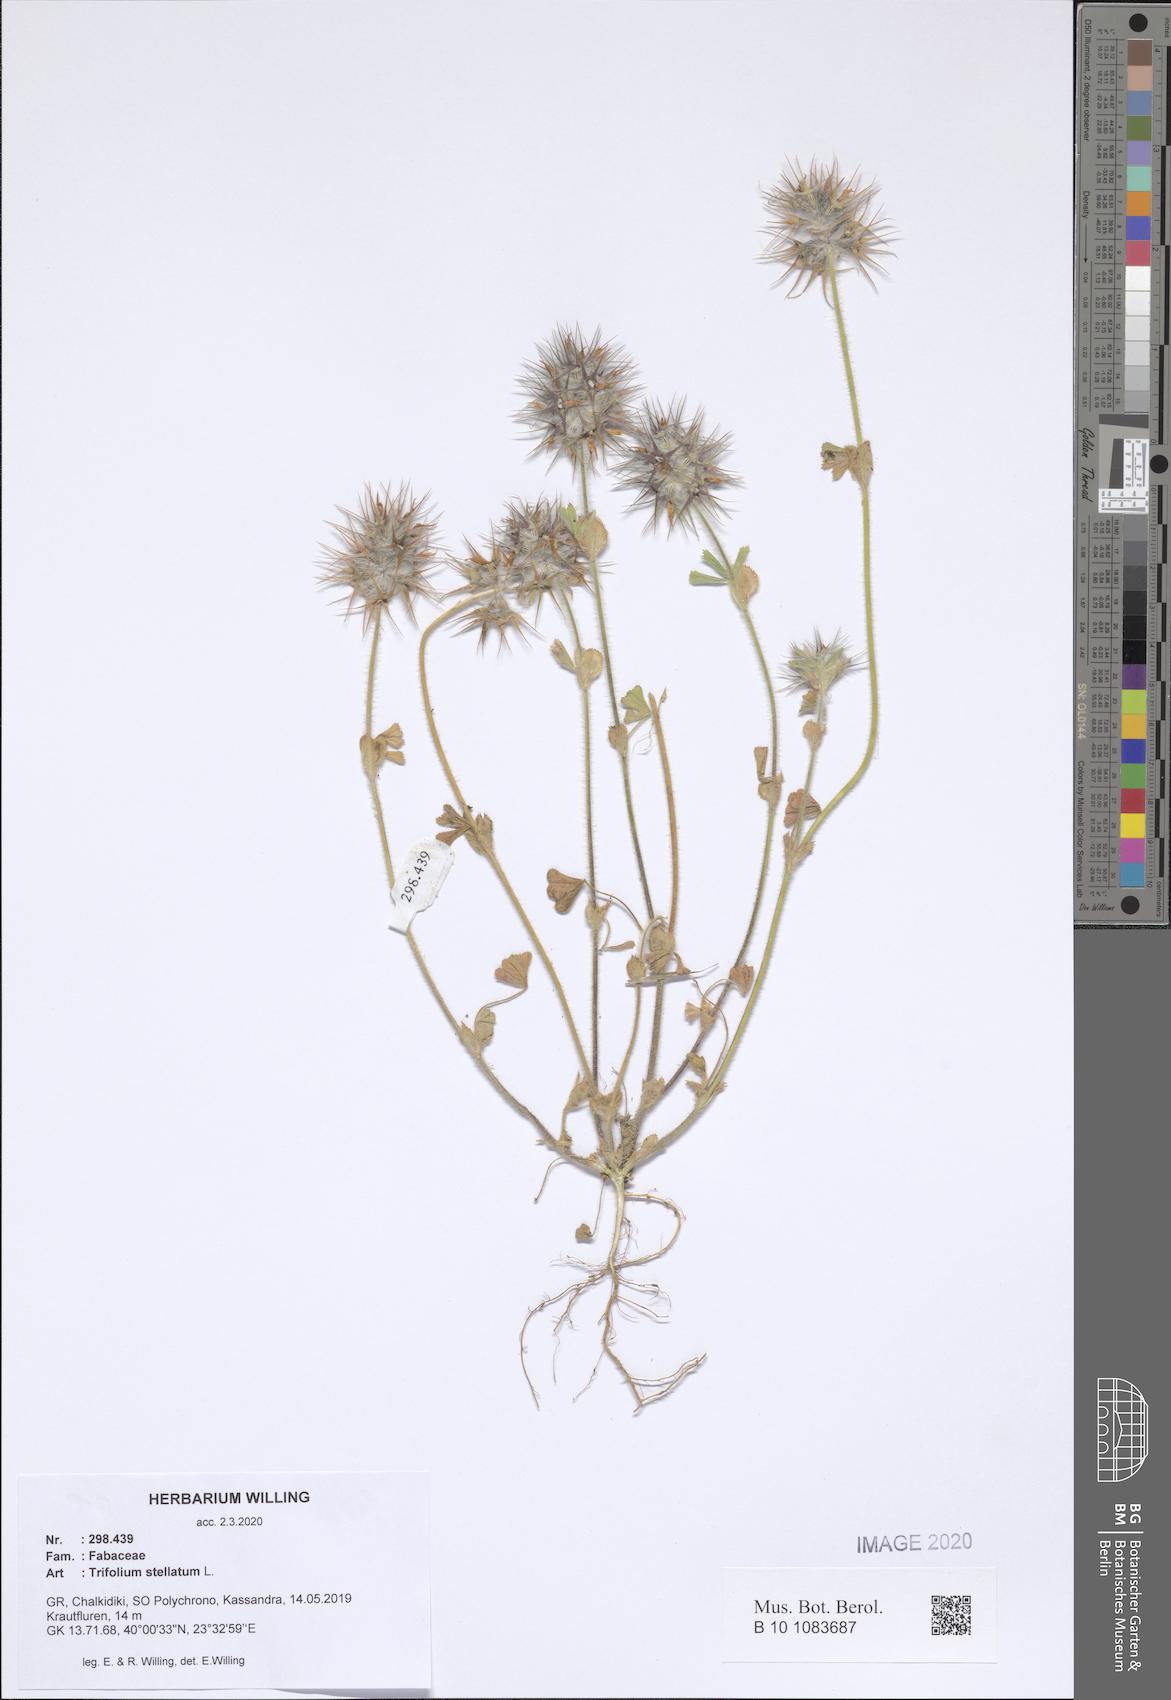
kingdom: Plantae
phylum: Tracheophyta
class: Magnoliopsida
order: Fabales
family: Fabaceae
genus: Trifolium
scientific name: Trifolium stellatum
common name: Starry clover
